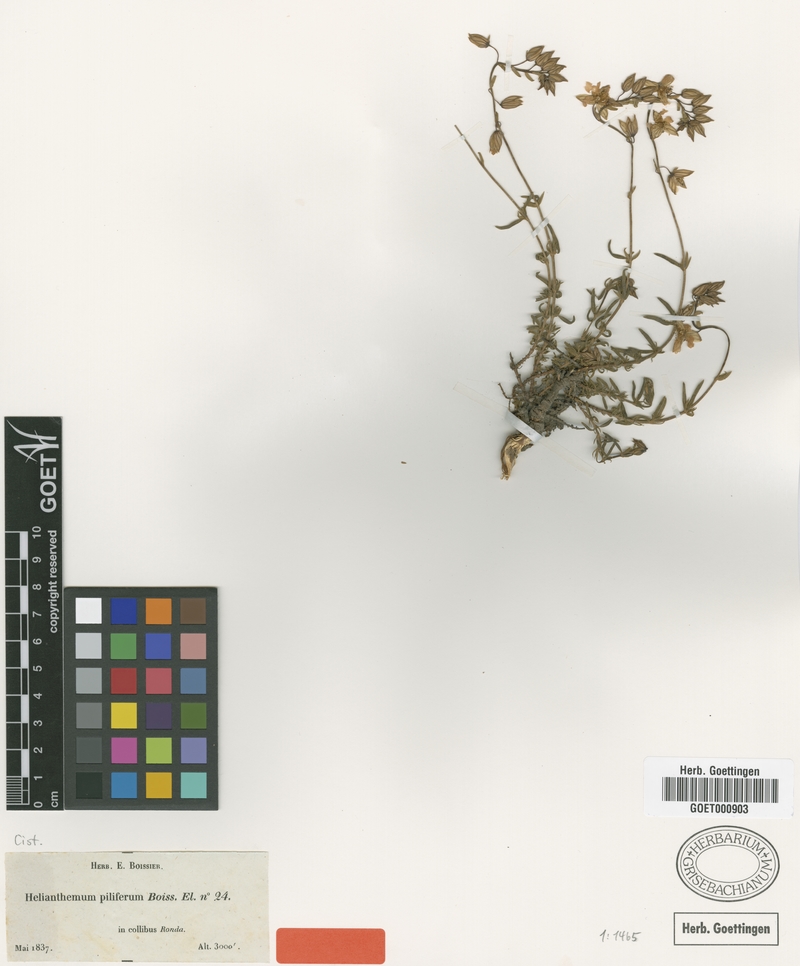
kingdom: Plantae
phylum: Tracheophyta
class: Magnoliopsida
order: Malvales
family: Cistaceae
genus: Helianthemum
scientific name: Helianthemum neopiliferum
